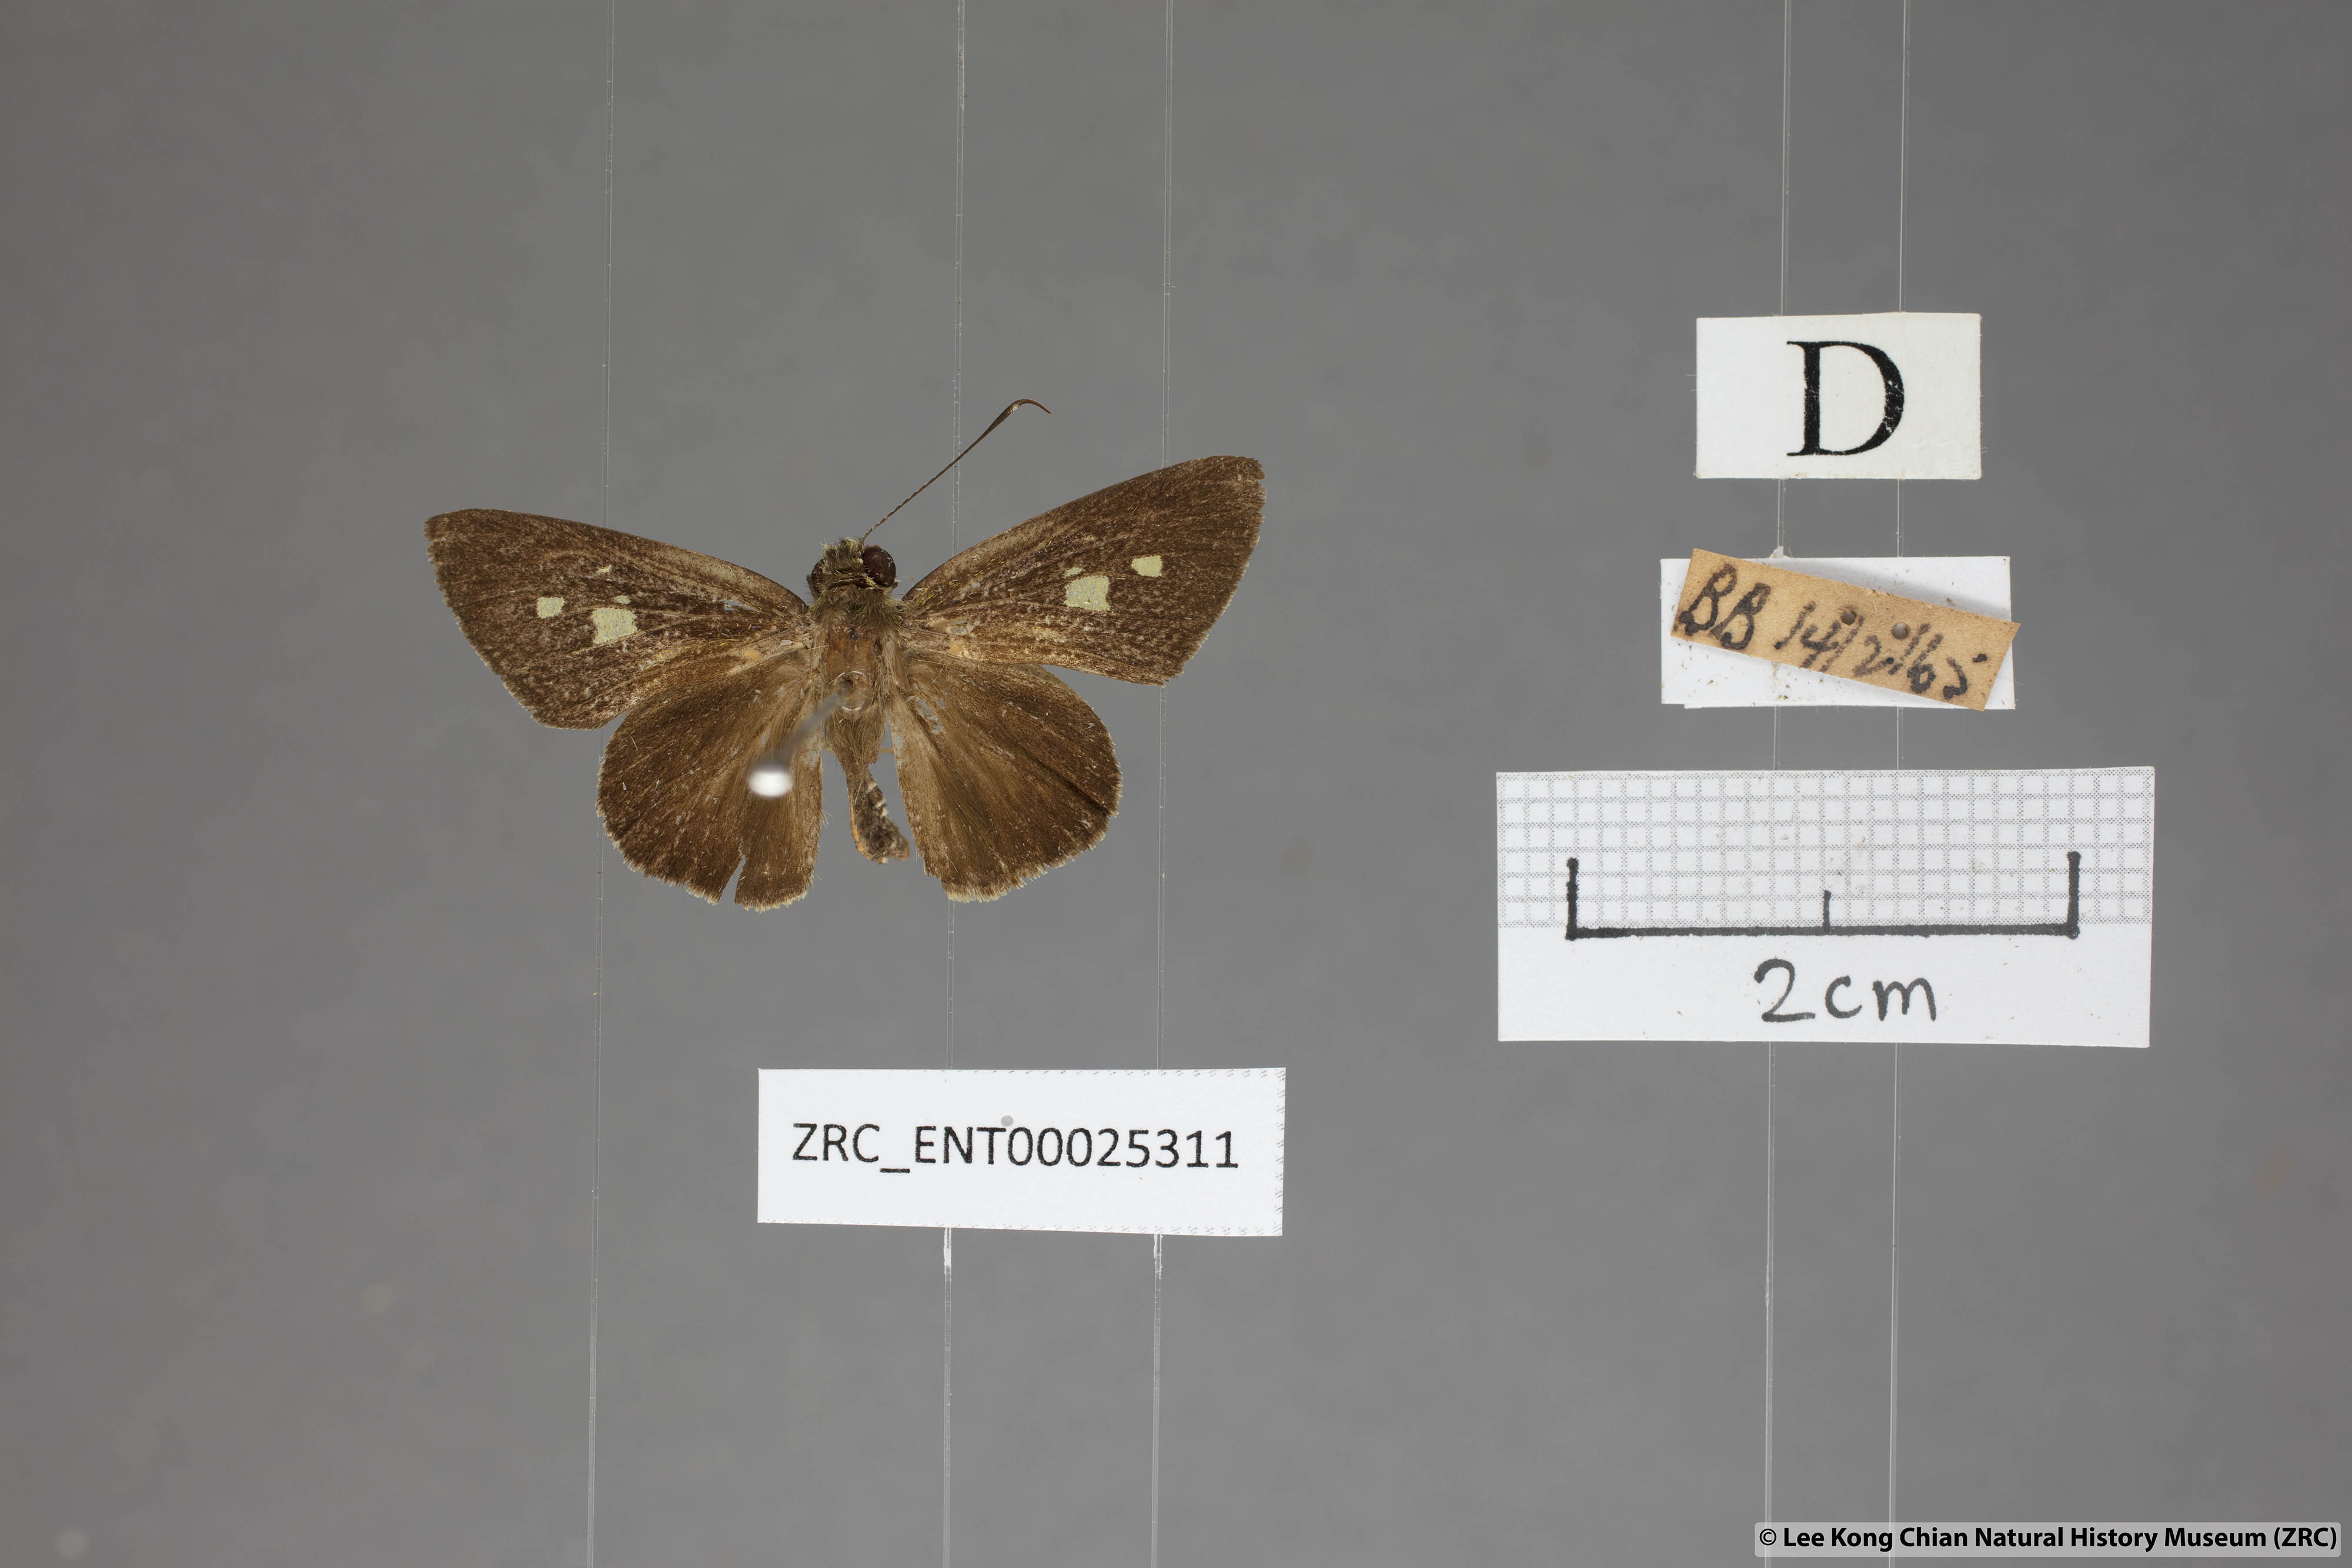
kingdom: Animalia
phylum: Arthropoda
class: Insecta
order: Lepidoptera
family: Hesperiidae
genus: Salanoemia
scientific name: Salanoemia sala
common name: Maculate lancer
